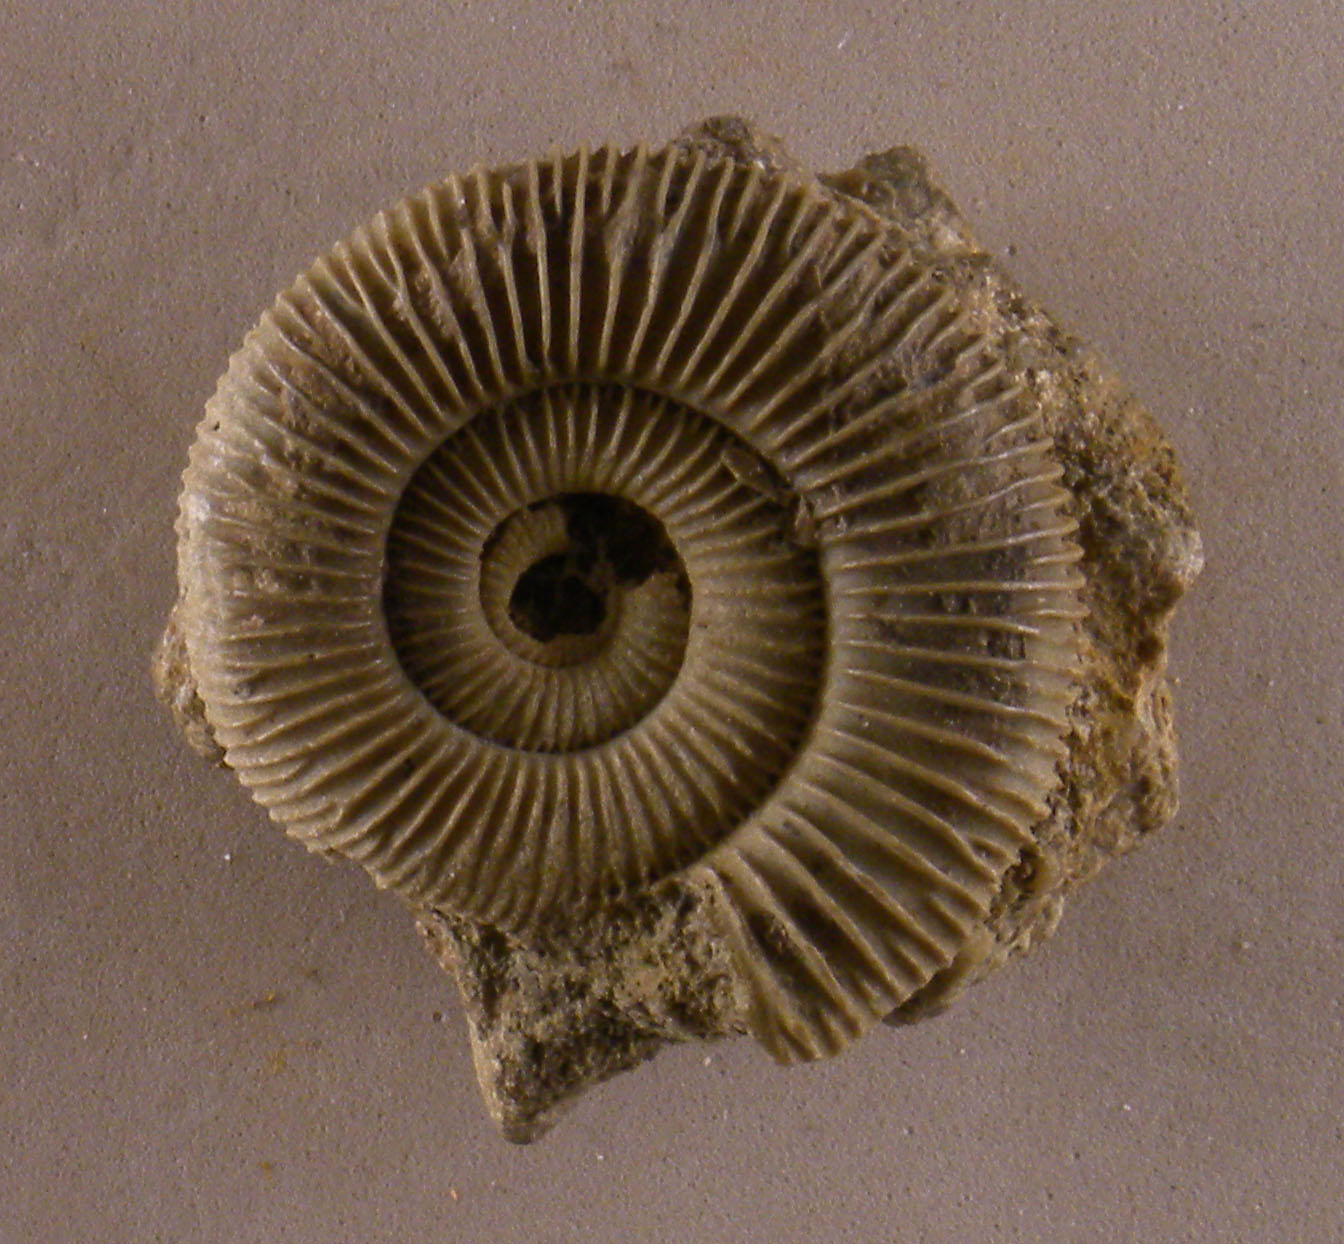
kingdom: Animalia
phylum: Mollusca
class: Cephalopoda
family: Dactylioceratidae
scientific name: Dactylioceratidae
